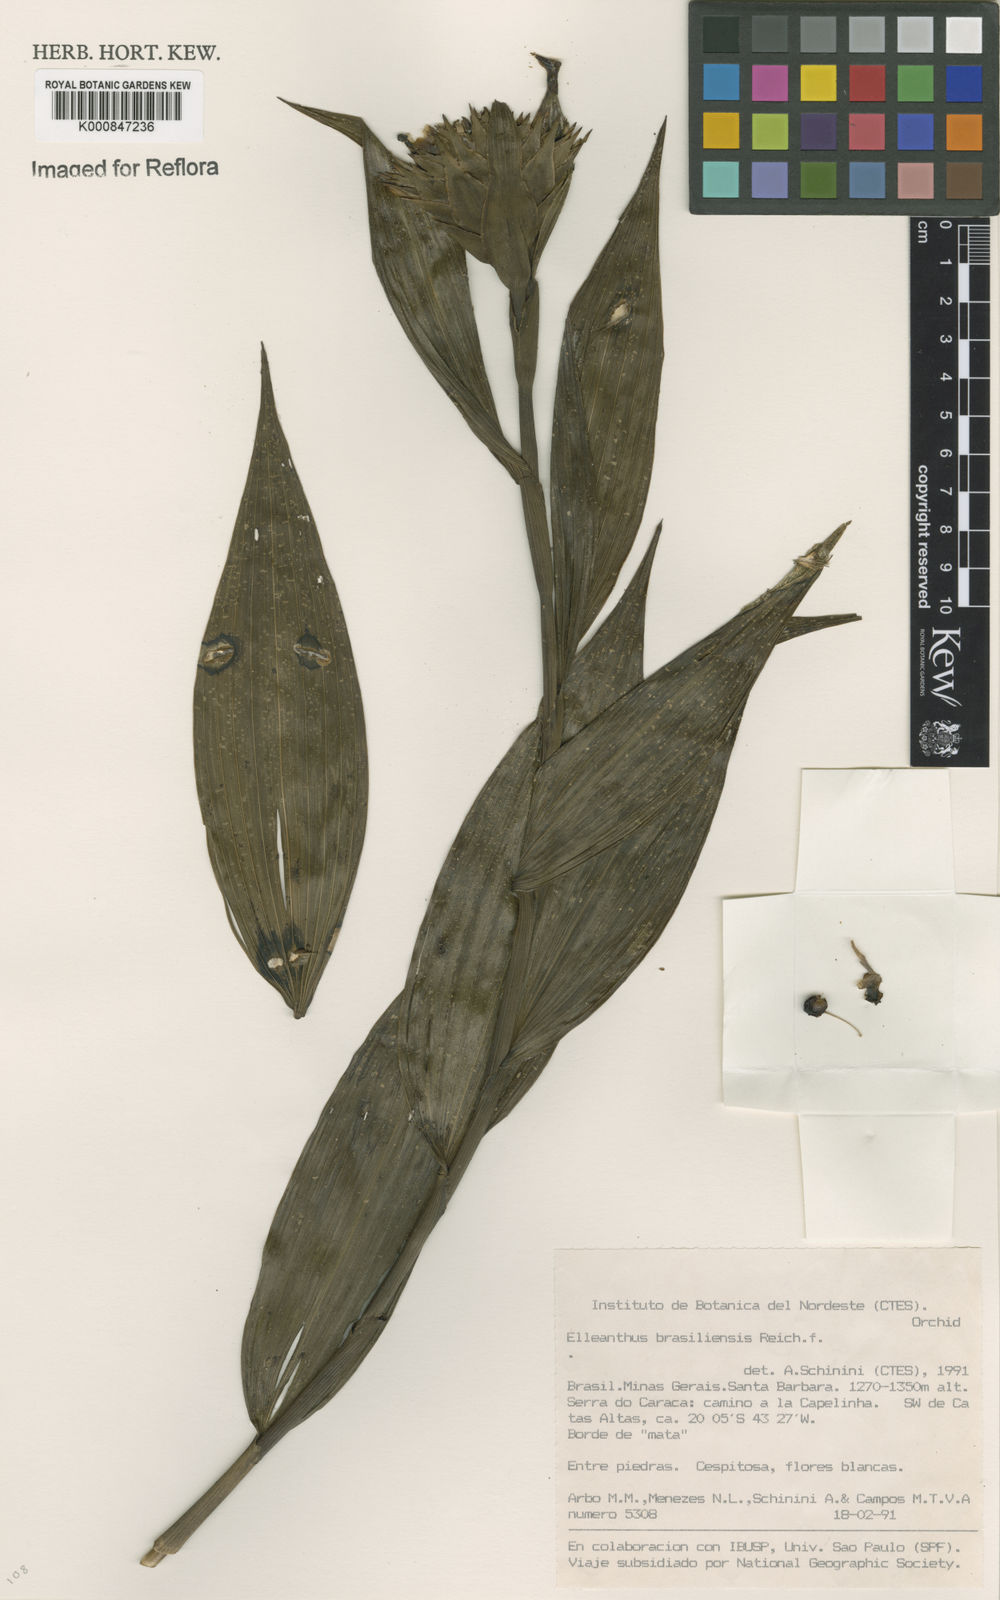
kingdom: Plantae
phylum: Tracheophyta
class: Liliopsida
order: Asparagales
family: Orchidaceae
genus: Elleanthus
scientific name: Elleanthus brasiliensis
